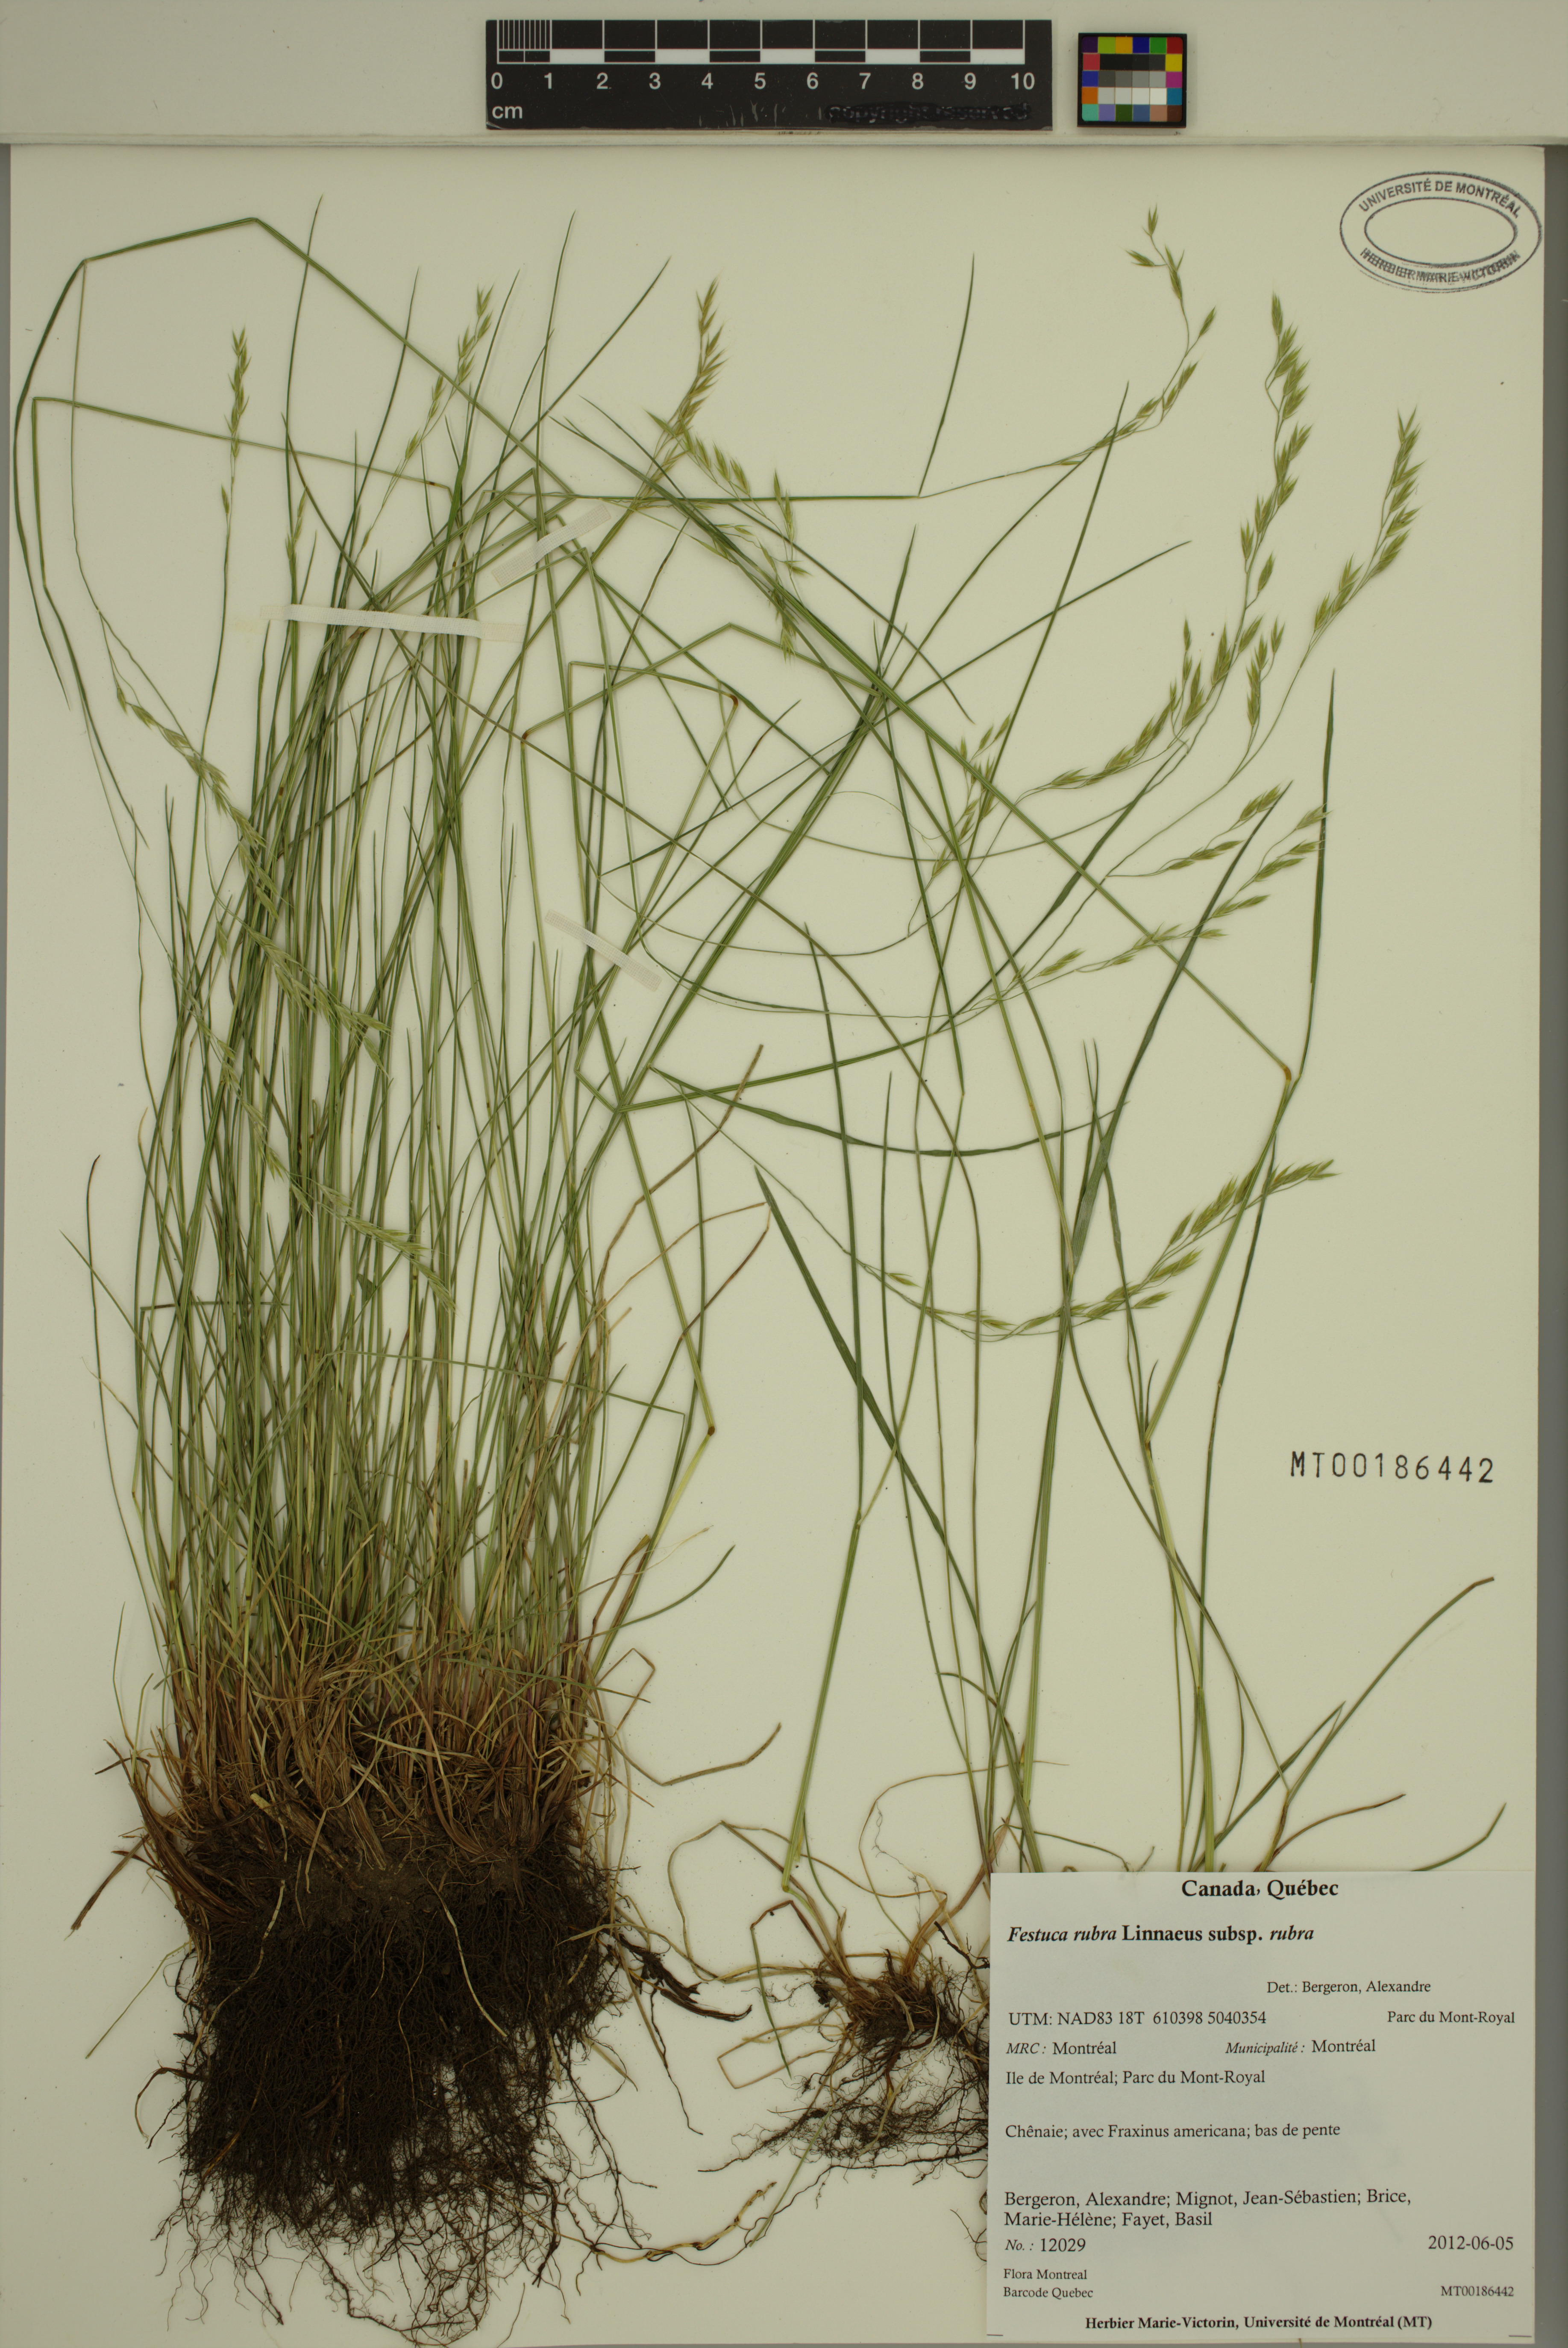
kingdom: Plantae
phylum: Tracheophyta
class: Liliopsida
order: Poales
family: Poaceae
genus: Festuca
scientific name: Festuca rubra
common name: Red fescue
